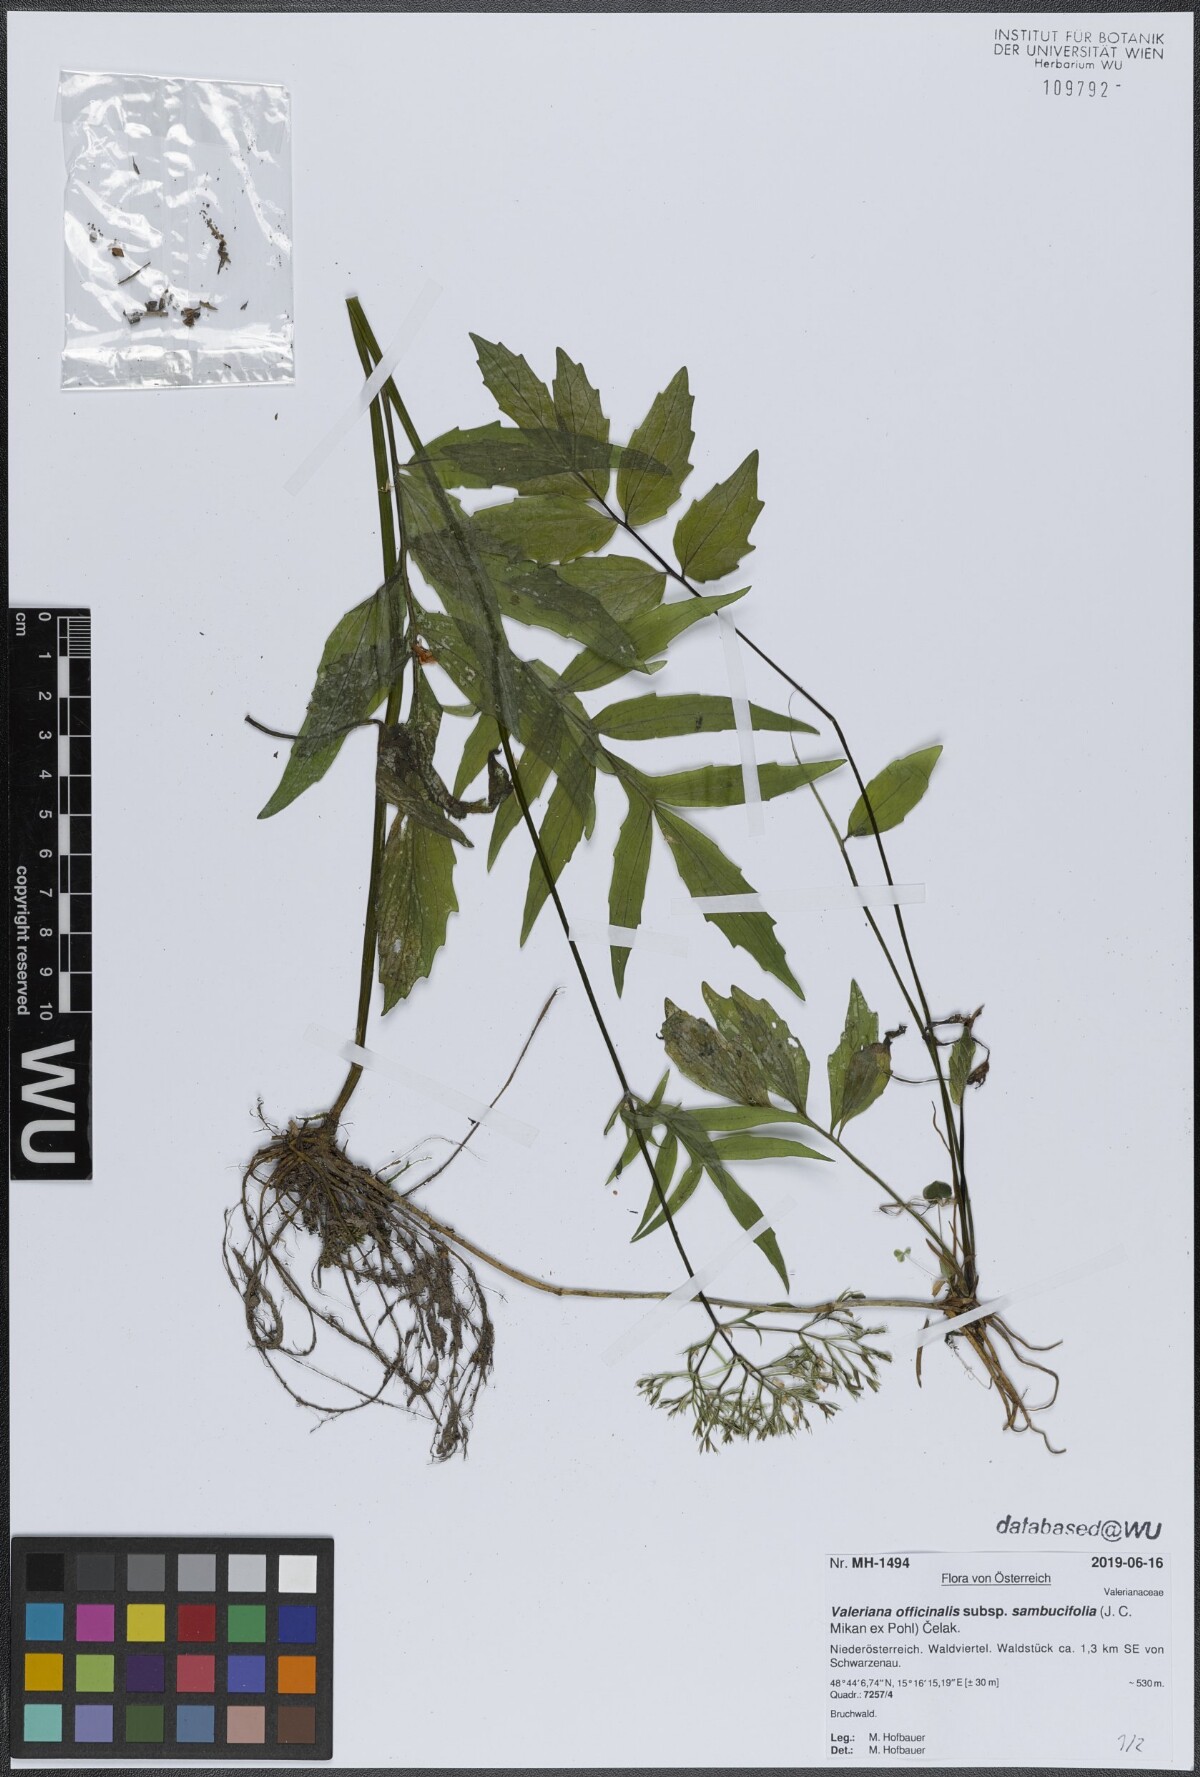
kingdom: Plantae
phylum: Tracheophyta
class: Magnoliopsida
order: Dipsacales
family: Caprifoliaceae
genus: Valeriana
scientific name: Valeriana excelsa
